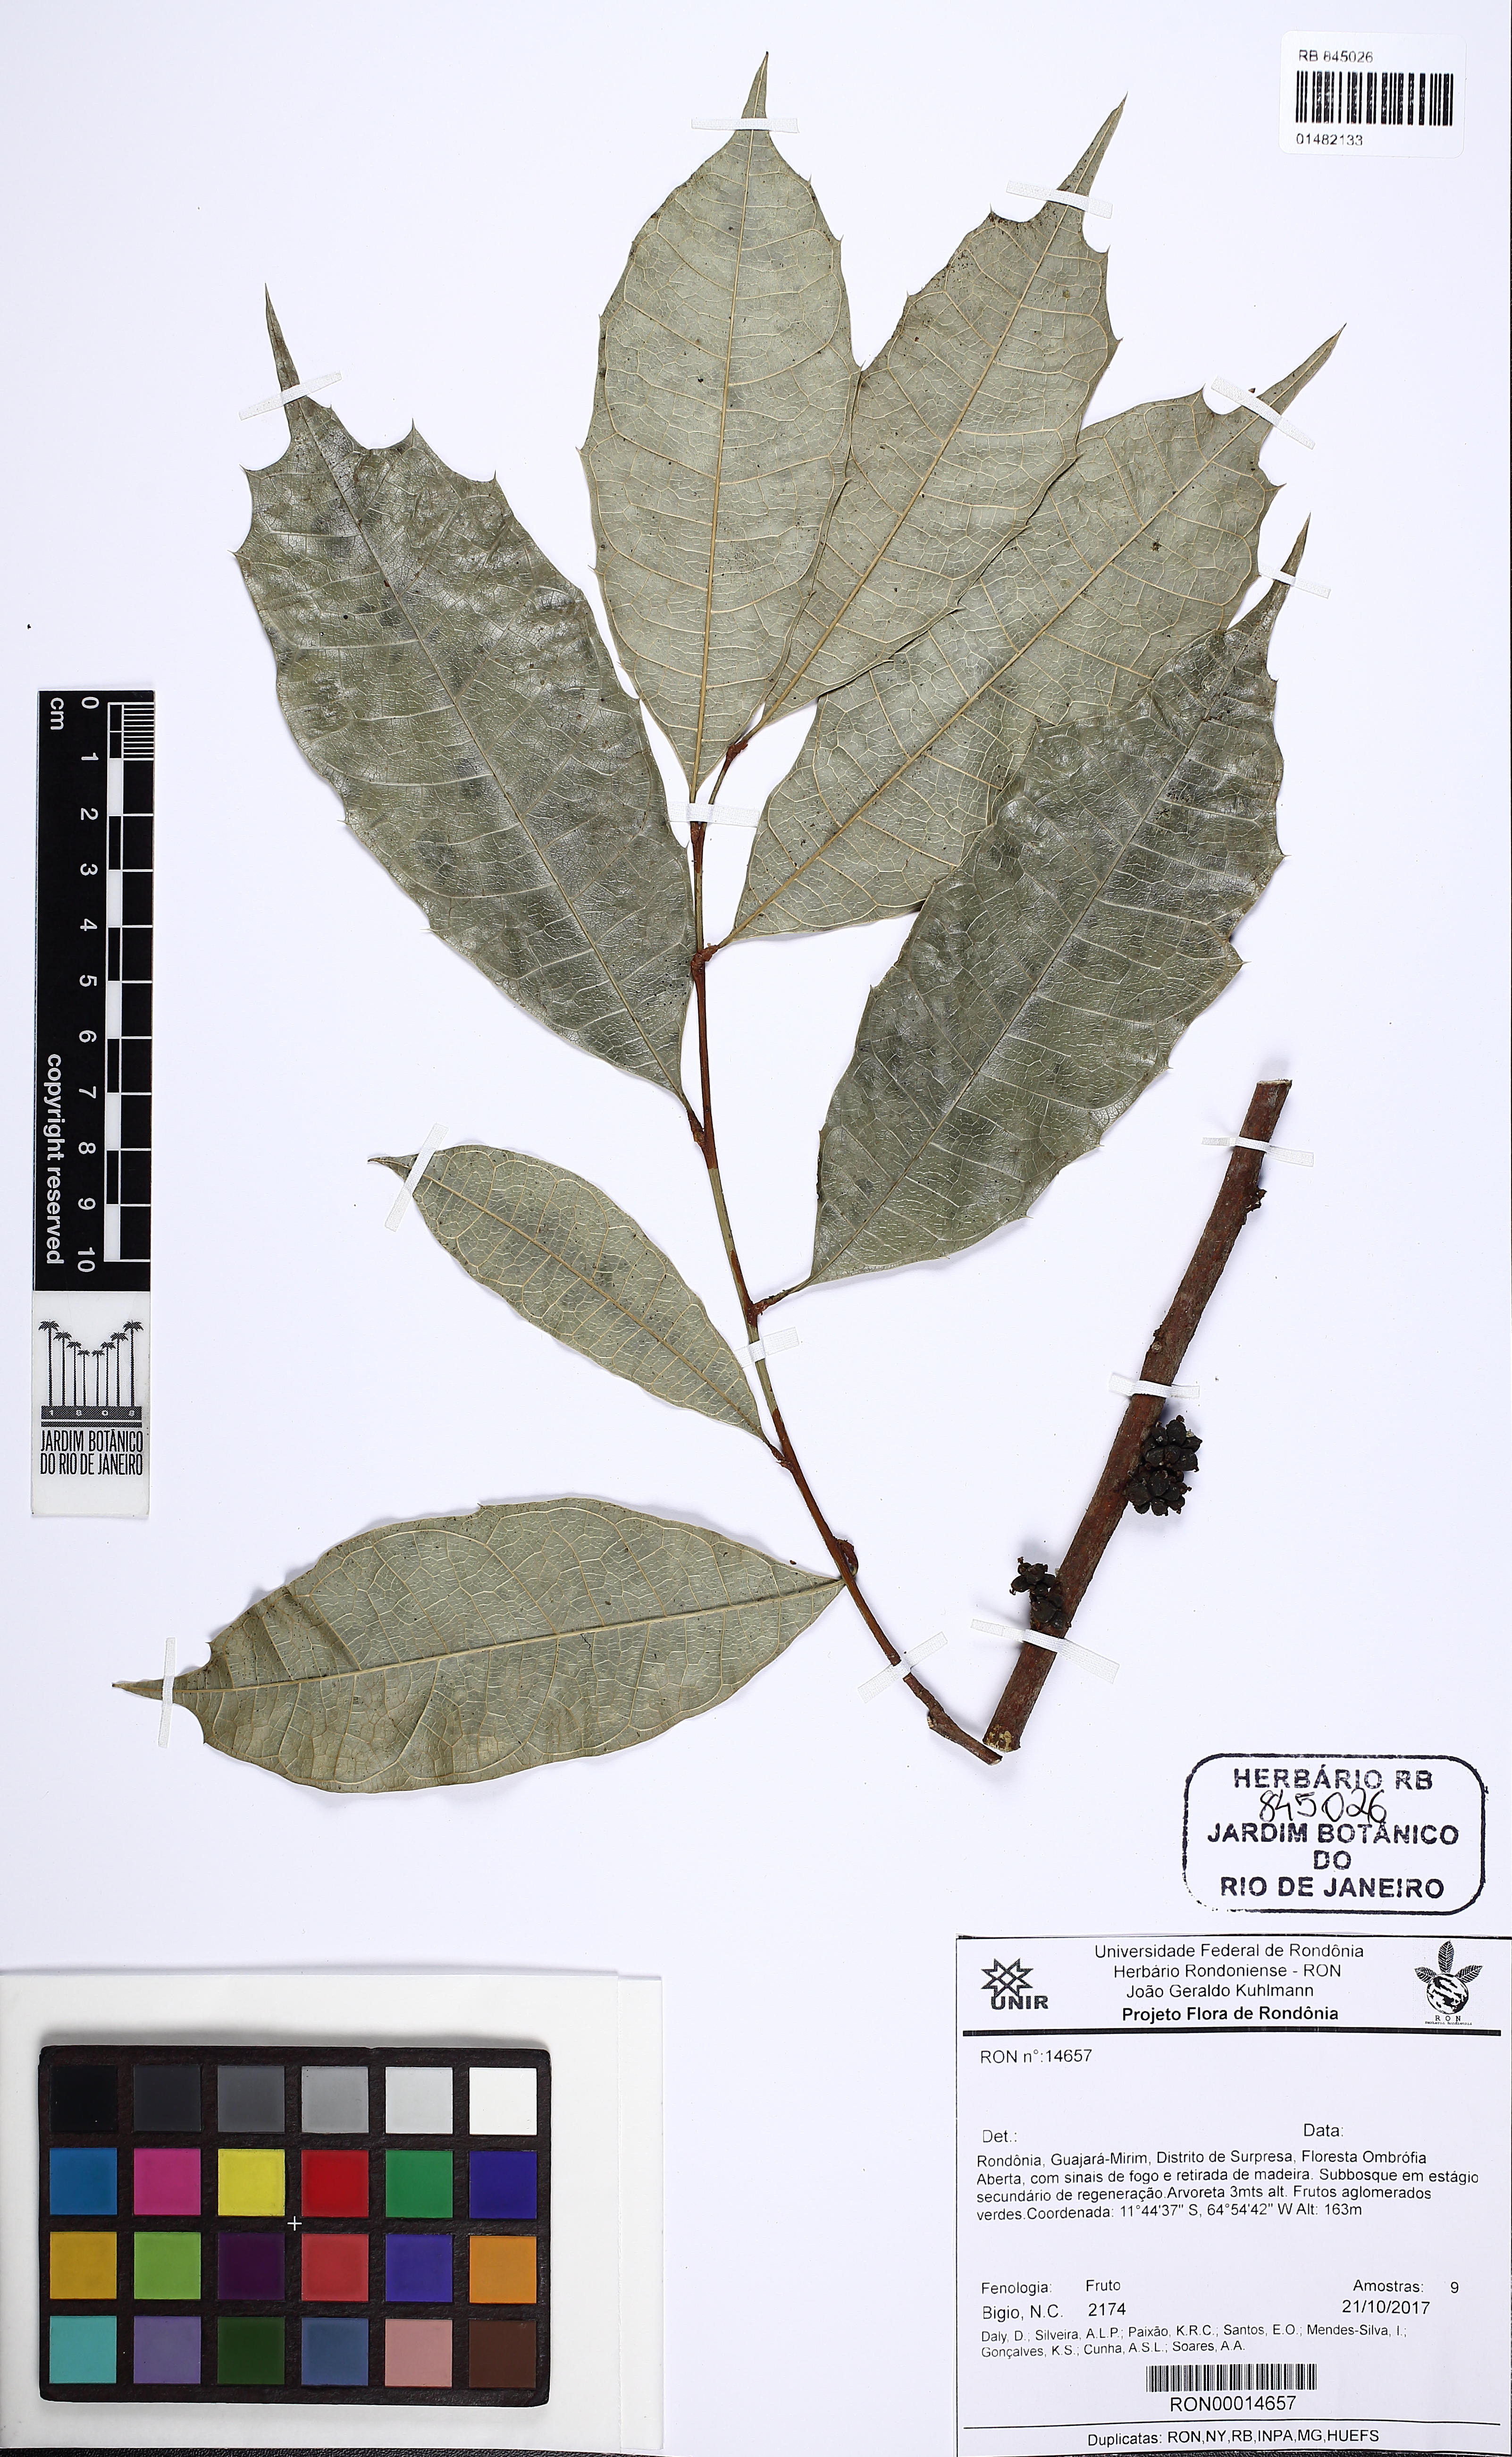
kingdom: Plantae
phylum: Tracheophyta
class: Magnoliopsida
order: Rosales
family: Moraceae
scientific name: Moraceae
